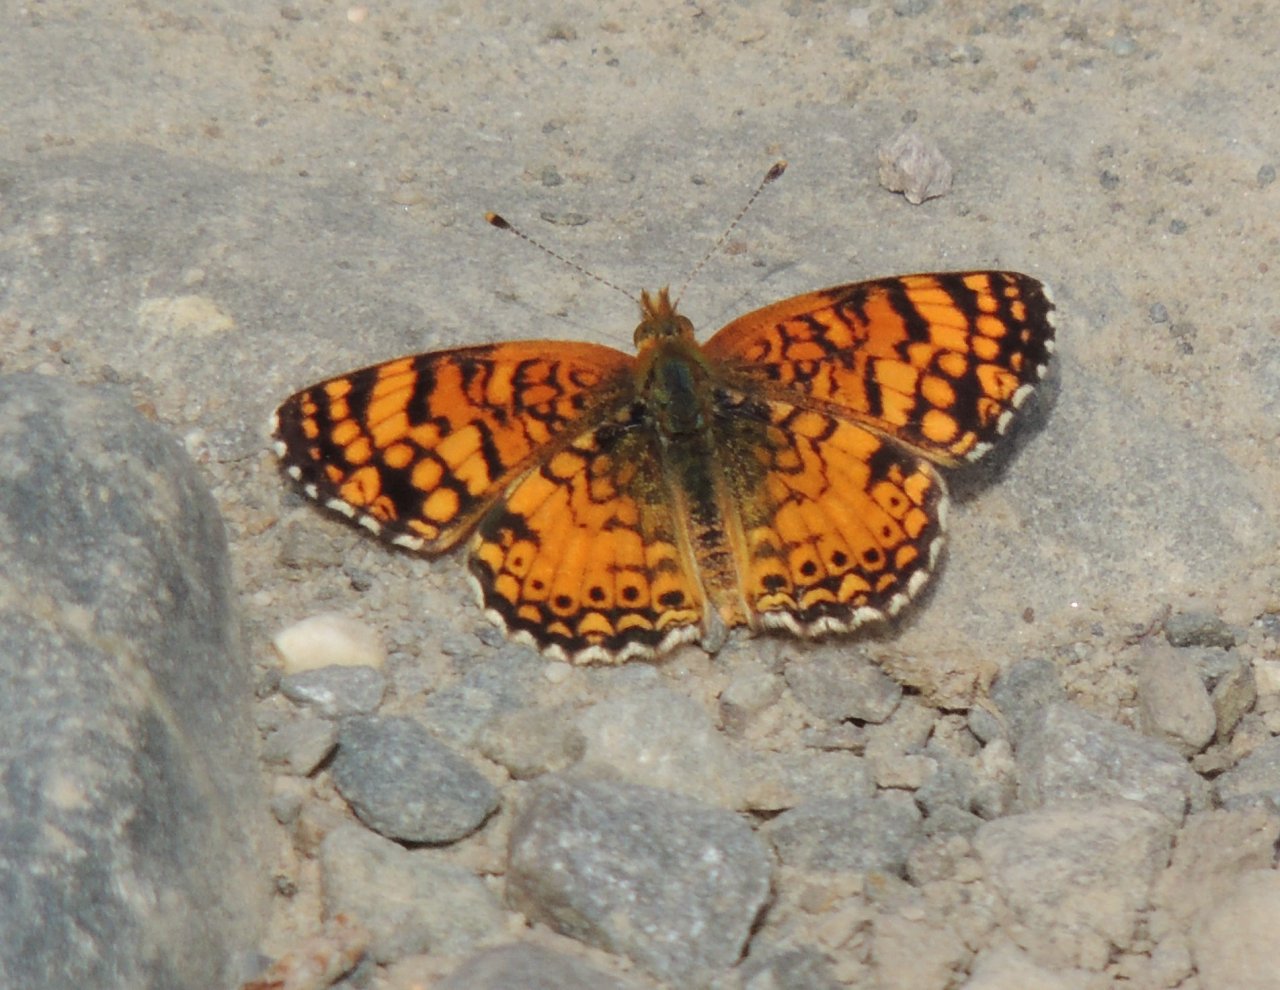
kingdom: Animalia
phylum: Arthropoda
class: Insecta
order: Lepidoptera
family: Nymphalidae
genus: Eresia
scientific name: Eresia aveyrona
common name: Mylitta Crescent
